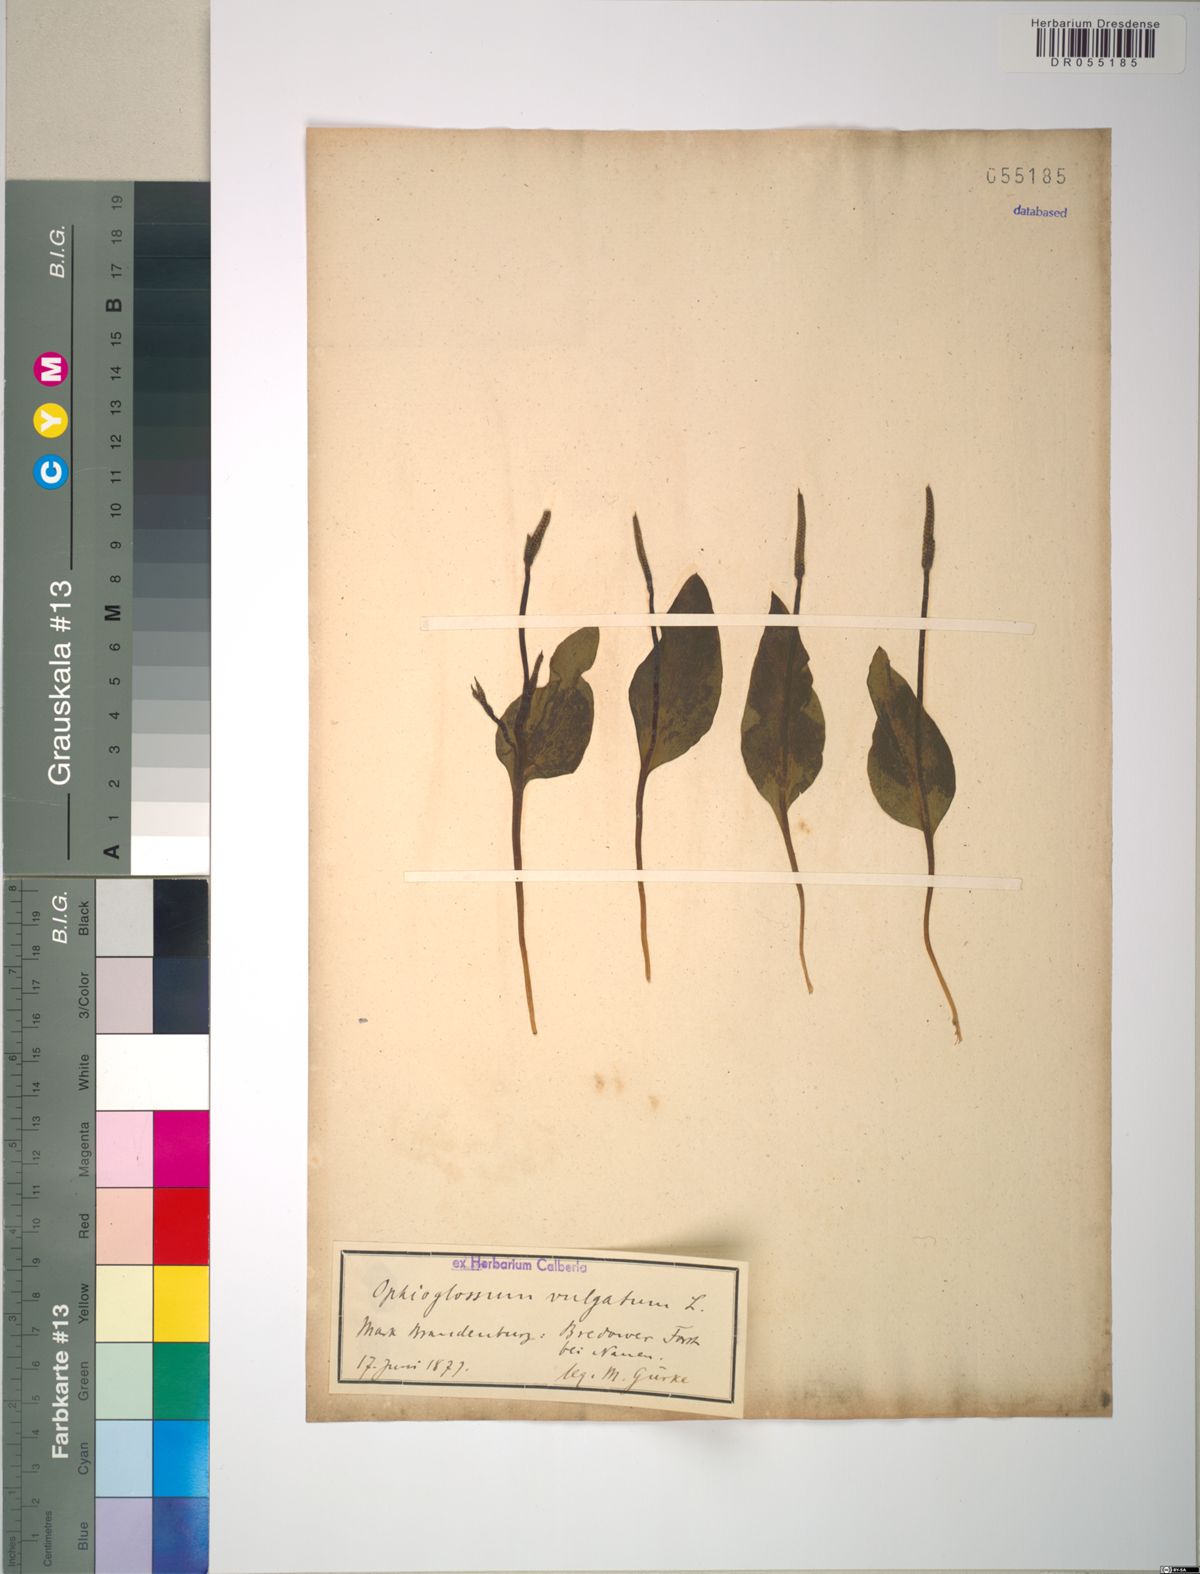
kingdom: Plantae
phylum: Tracheophyta
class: Polypodiopsida
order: Ophioglossales
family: Ophioglossaceae
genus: Ophioglossum
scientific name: Ophioglossum vulgatum
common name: Adder's-tongue
